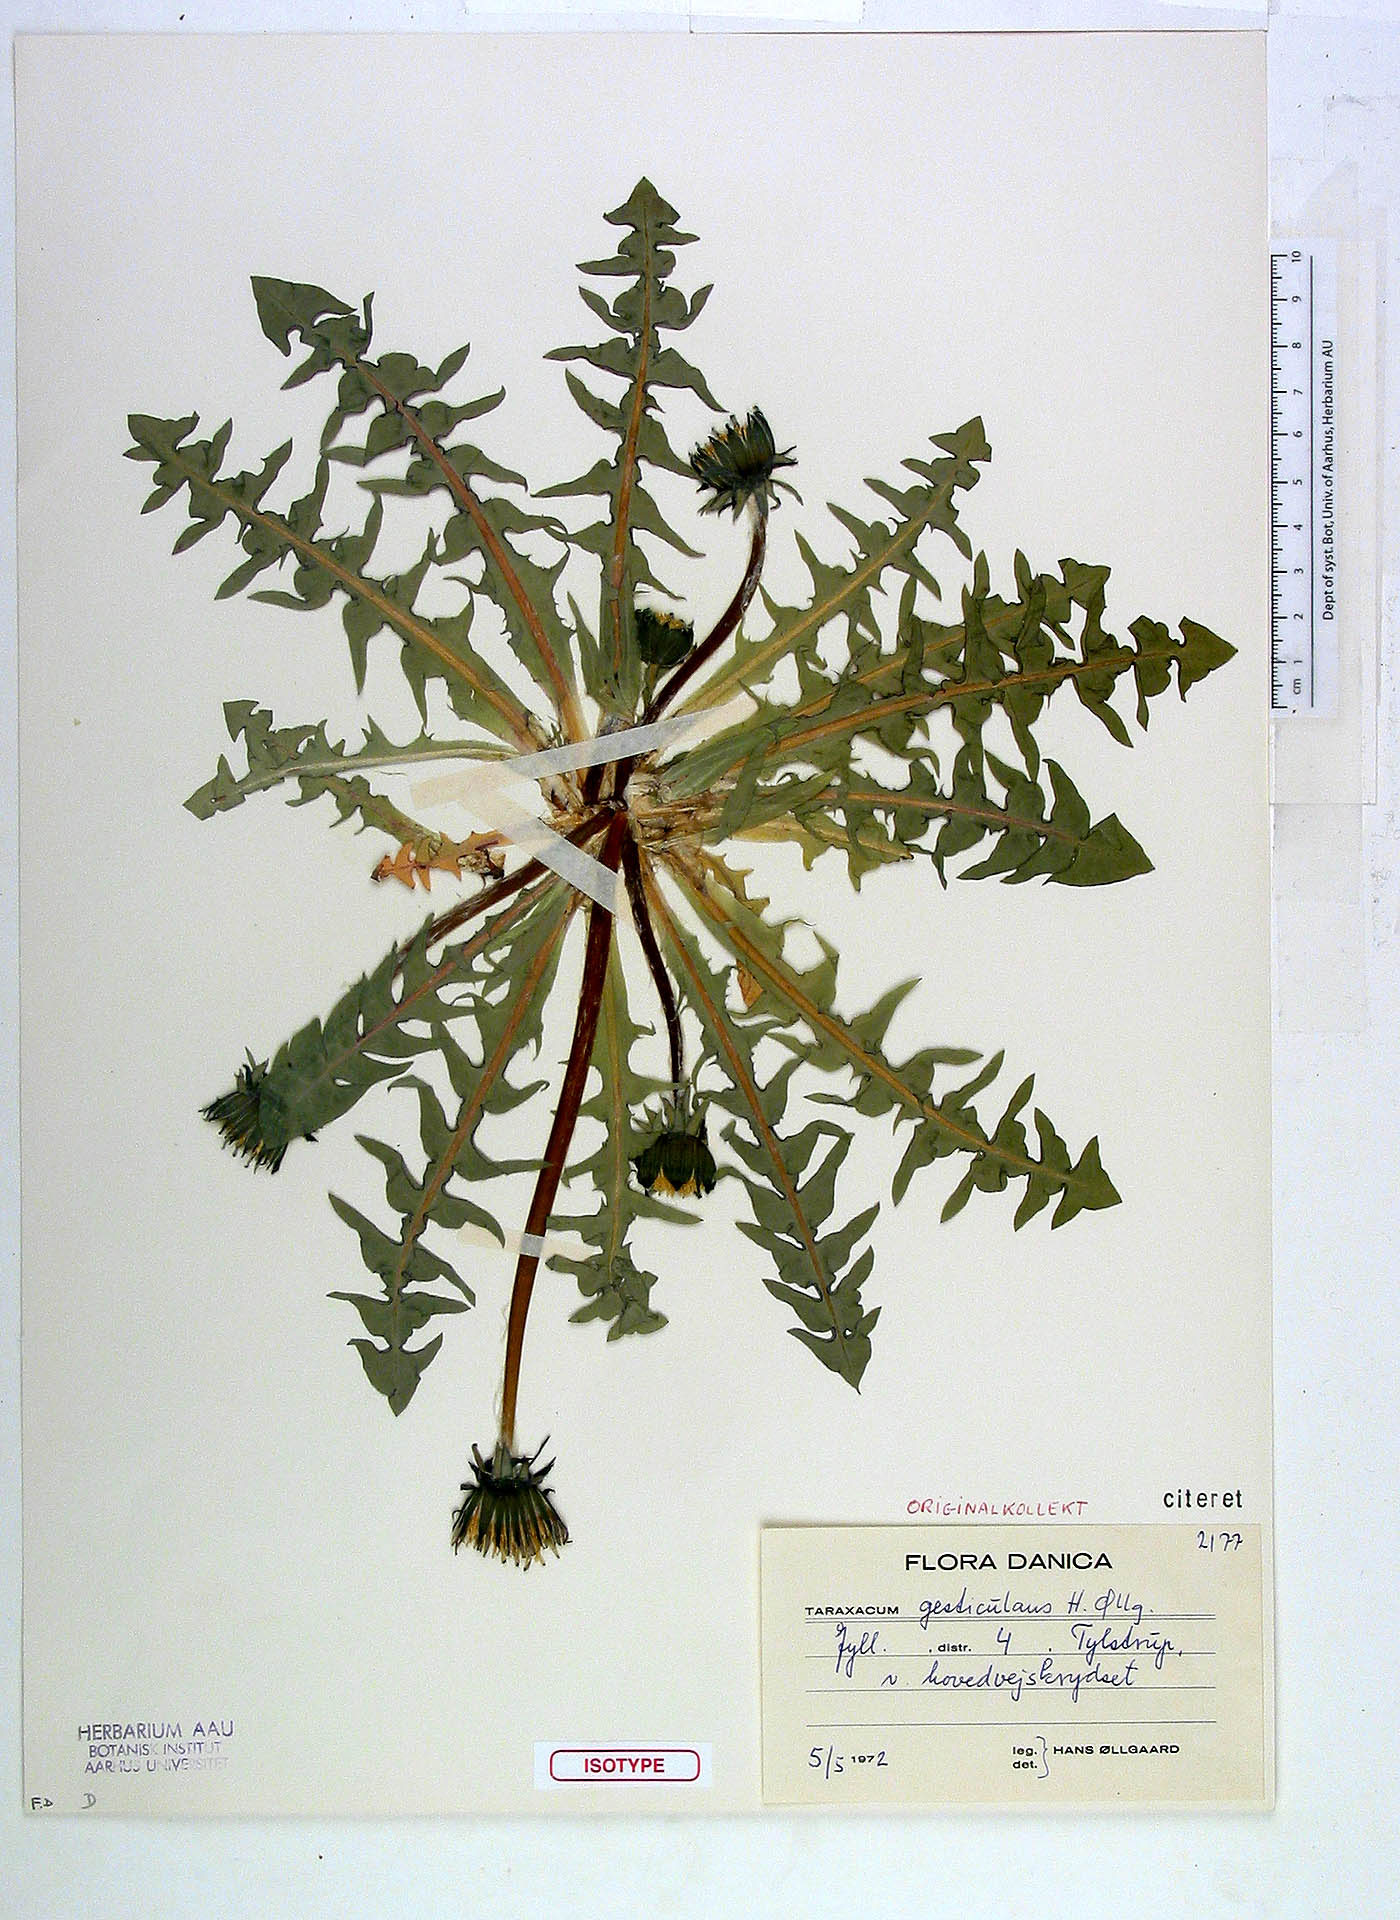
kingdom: Plantae
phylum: Tracheophyta
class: Magnoliopsida
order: Asterales
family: Asteraceae
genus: Taraxacum
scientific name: Taraxacum gesticulans
